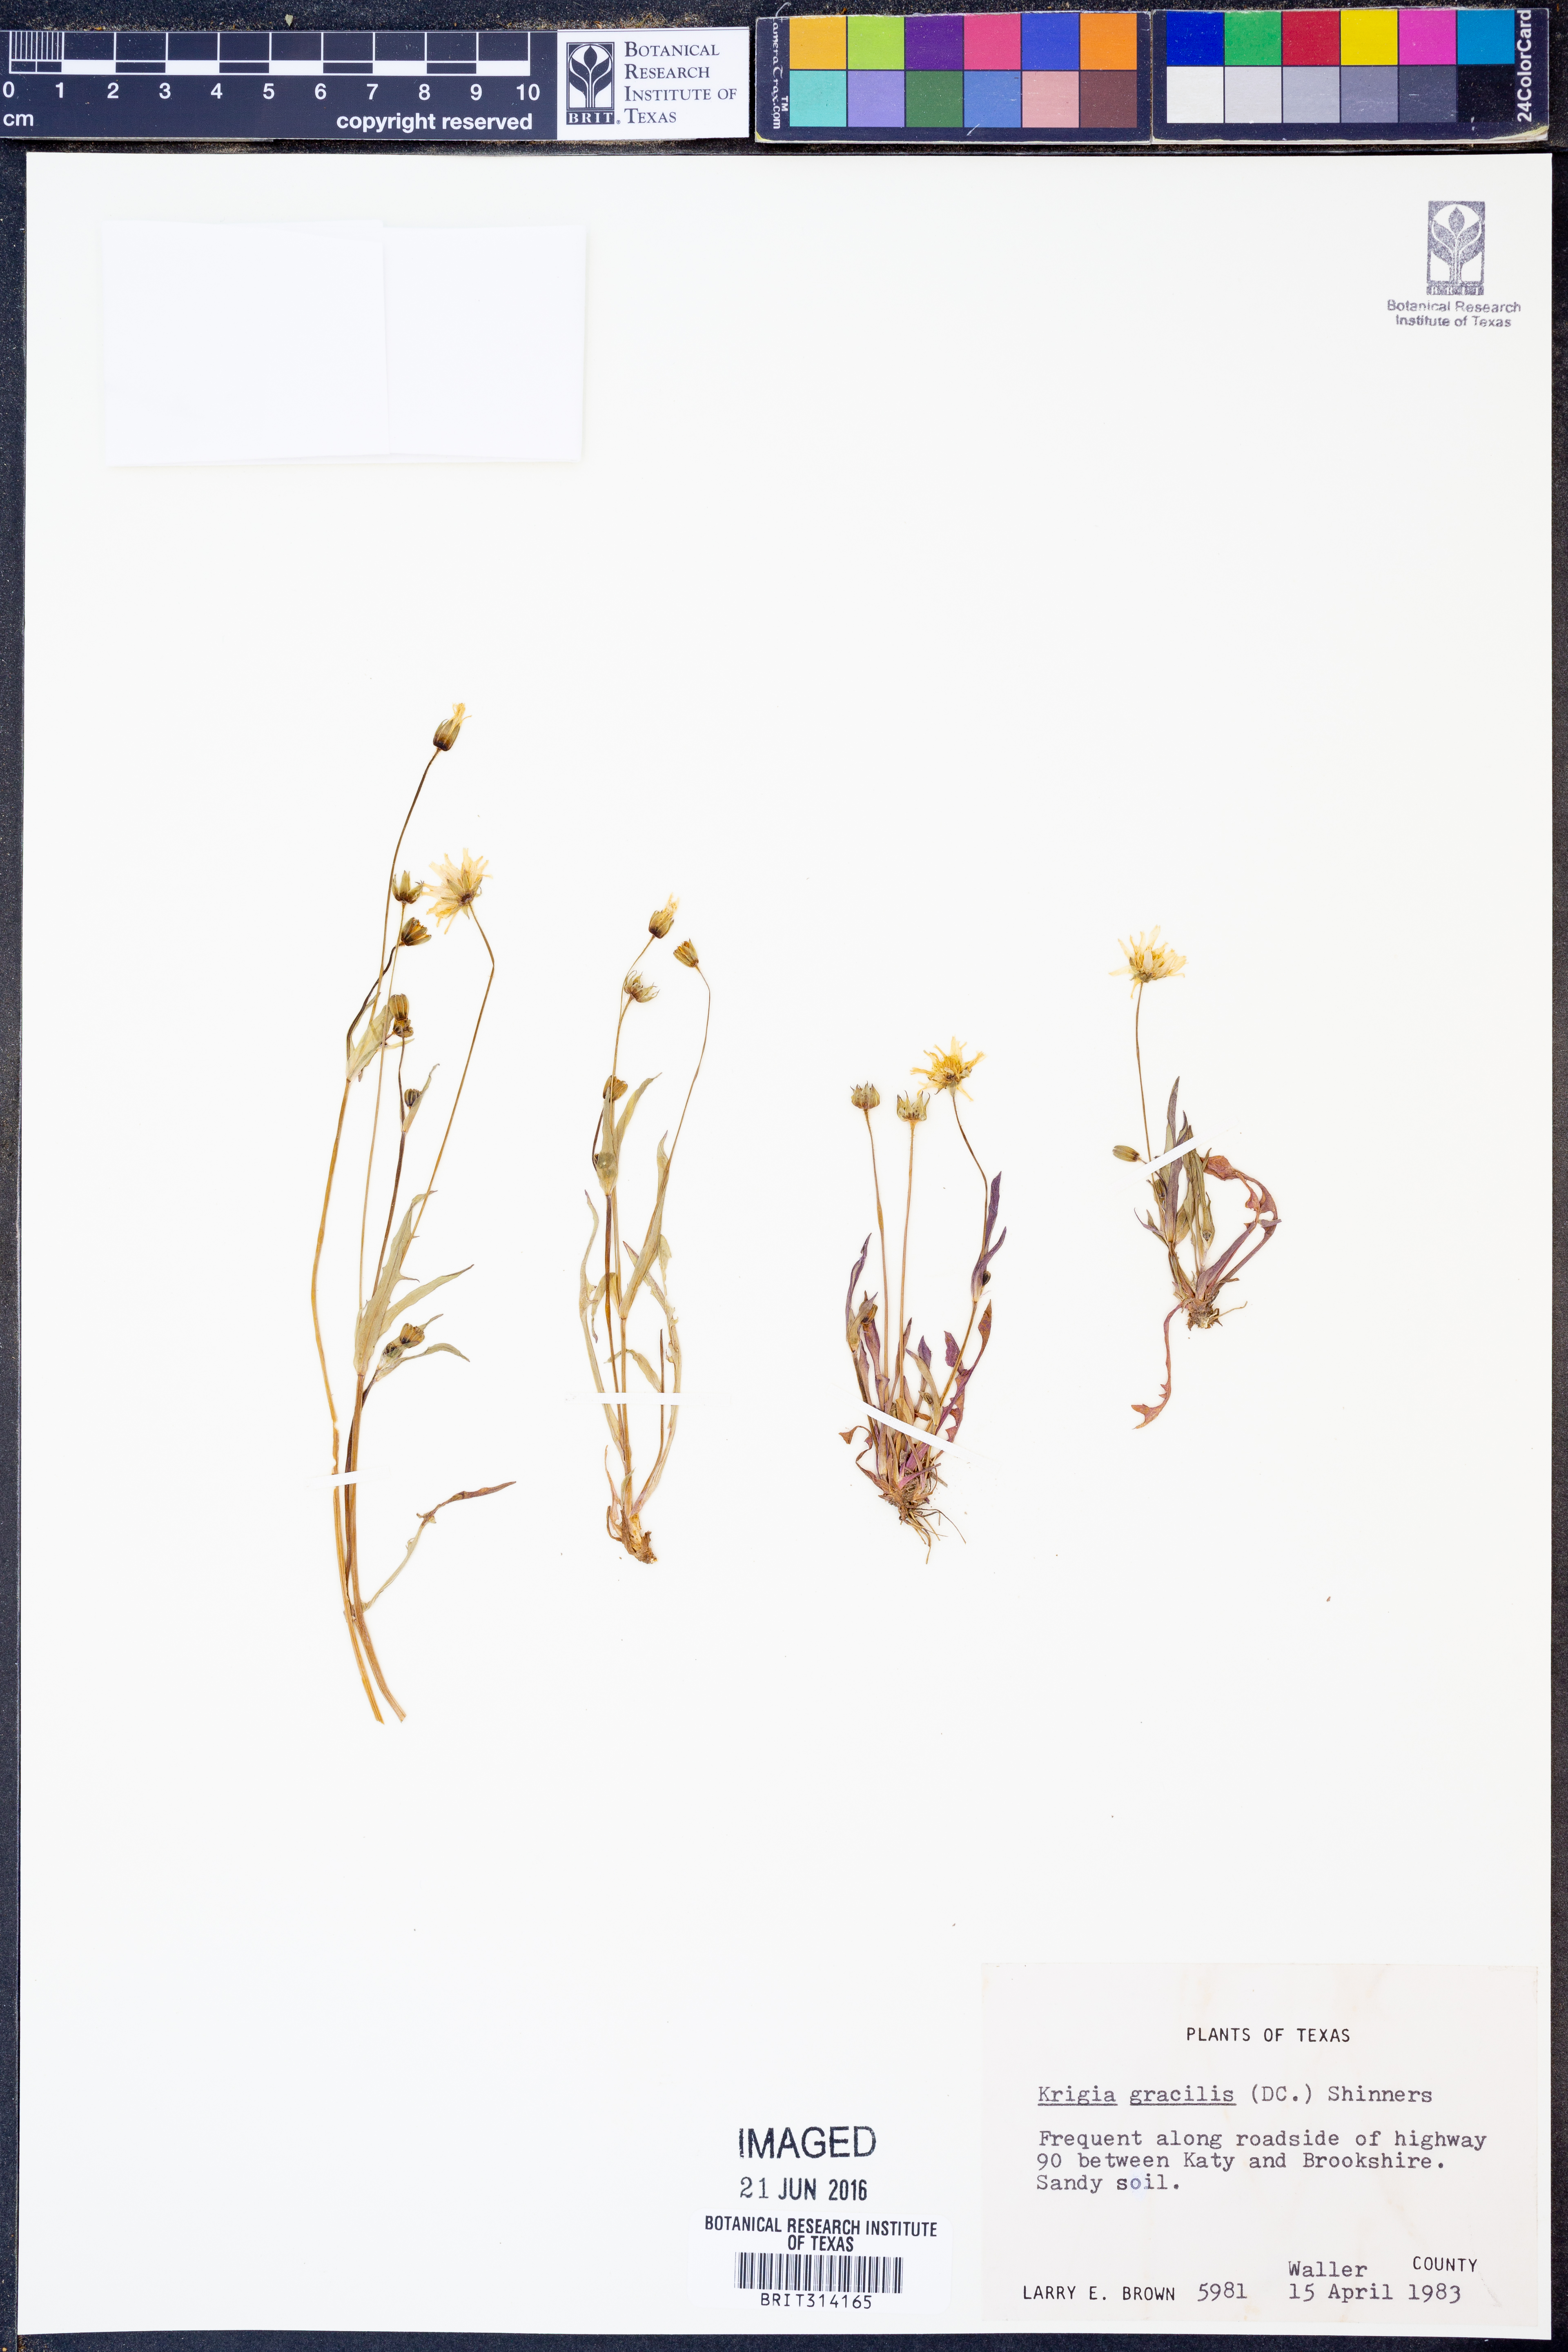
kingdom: Plantae
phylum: Tracheophyta
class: Magnoliopsida
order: Asterales
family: Asteraceae
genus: Krigia
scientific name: Krigia cespitosa
